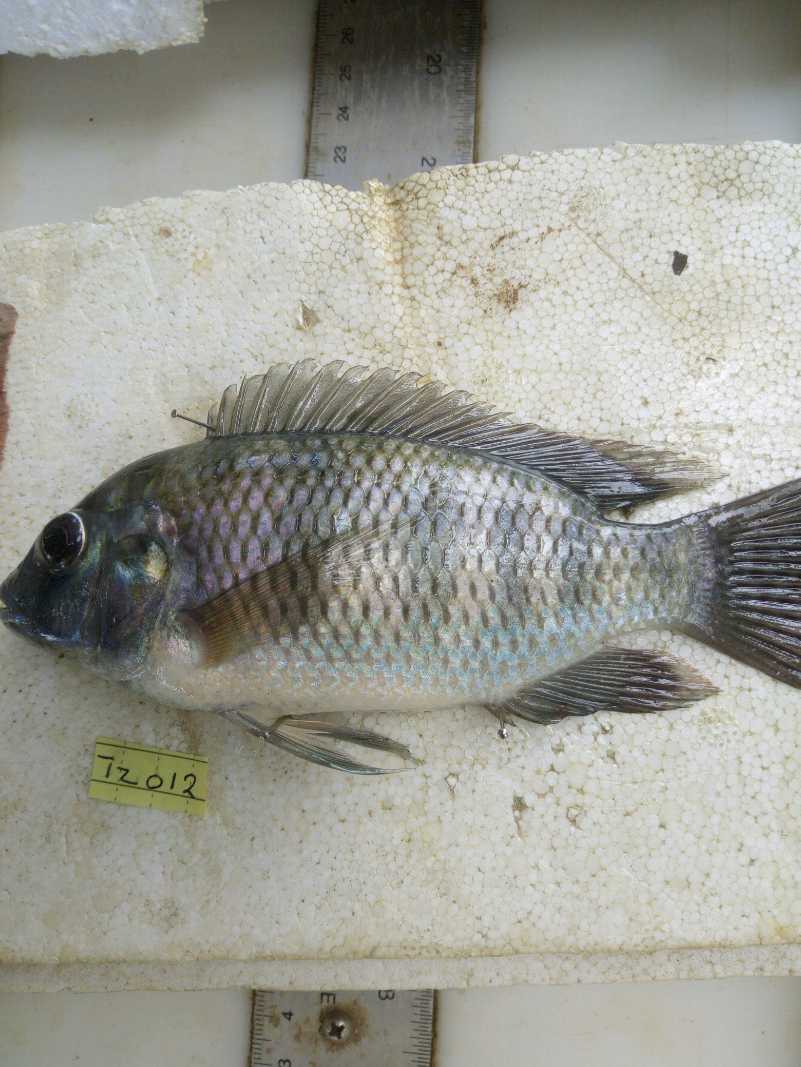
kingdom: Animalia
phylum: Chordata
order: Perciformes
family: Cichlidae
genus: Coptodon
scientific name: Coptodon rendalli
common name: Redbreast tilapia
